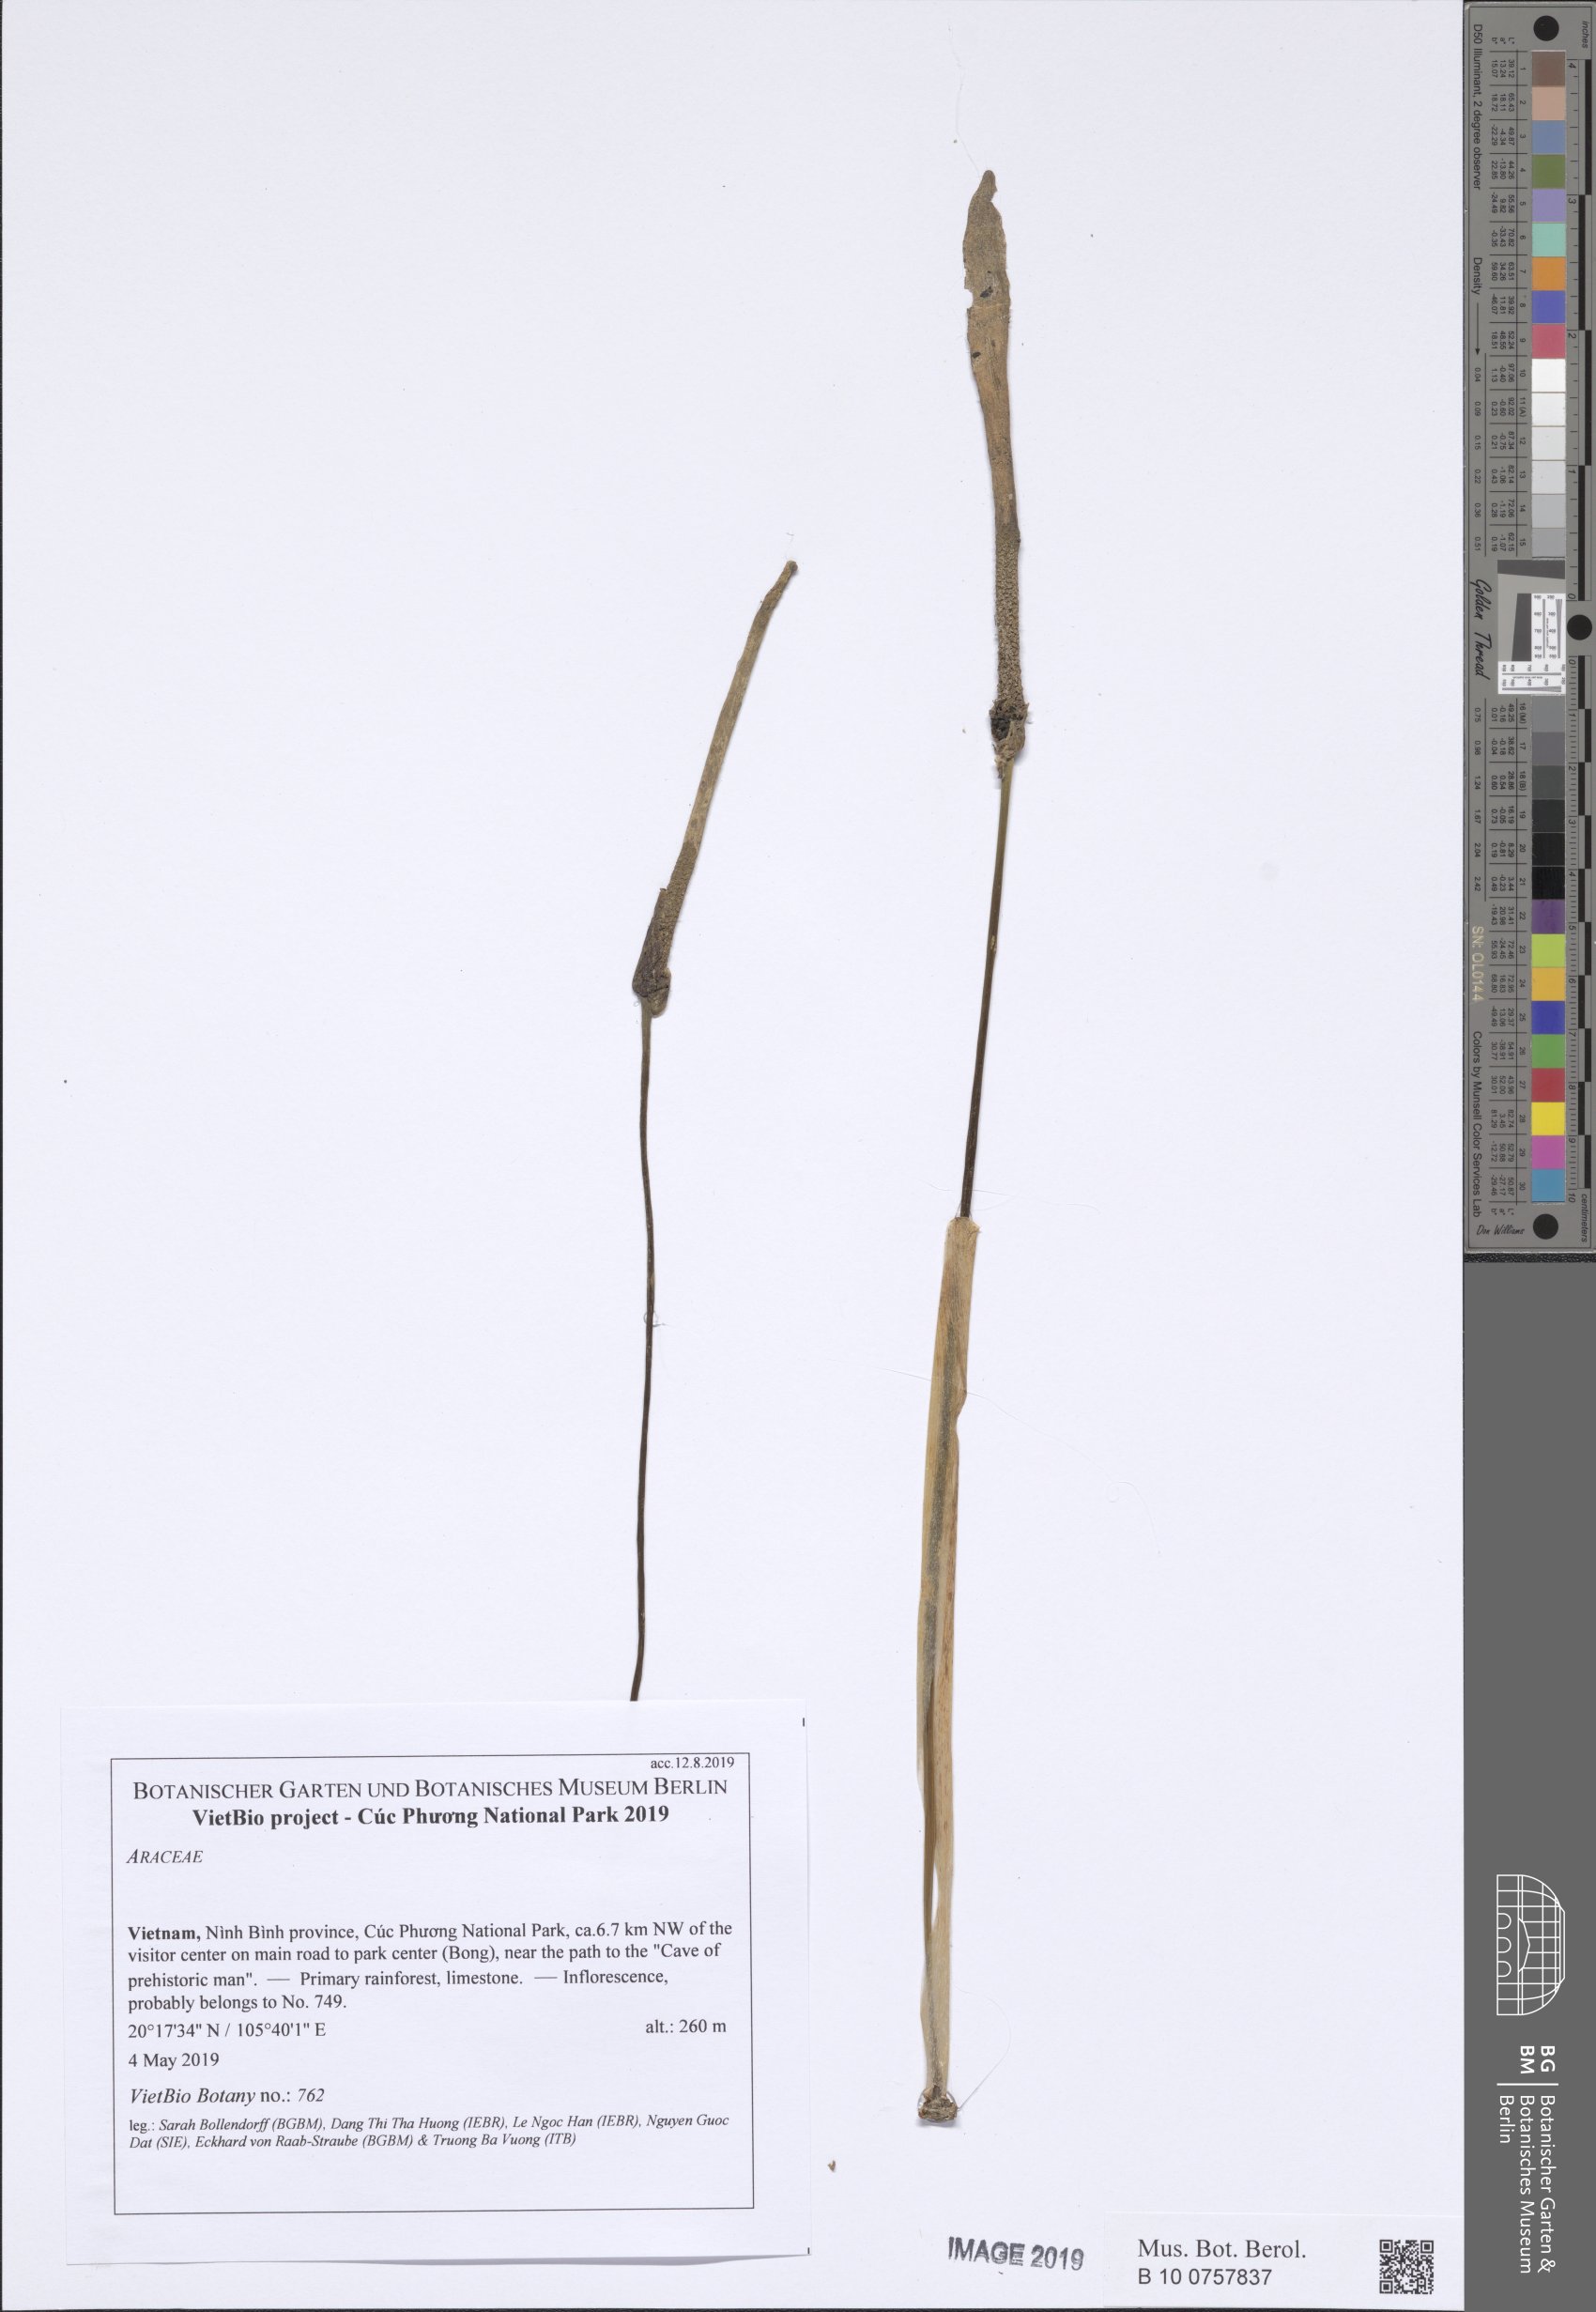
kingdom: Plantae
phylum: Tracheophyta
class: Liliopsida
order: Alismatales
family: Araceae
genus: Amorphophallus
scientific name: Amorphophallus sinuatus
